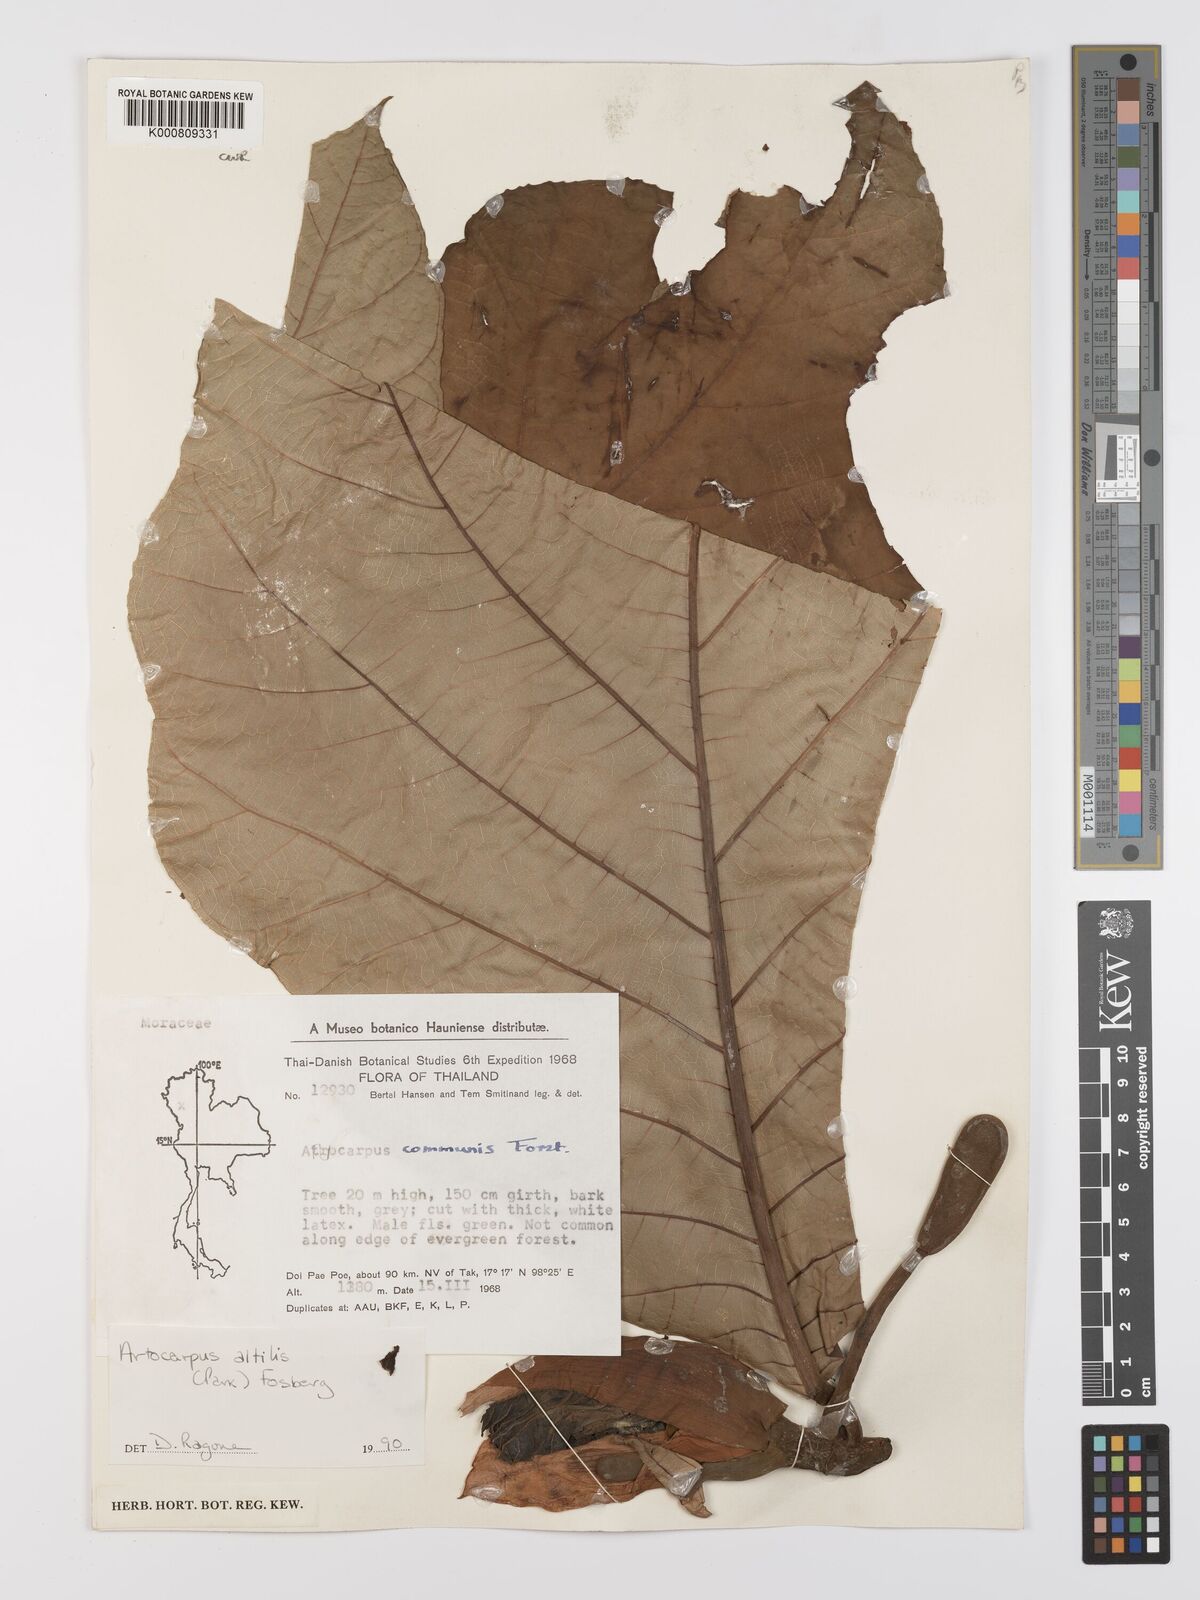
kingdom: Plantae
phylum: Tracheophyta
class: Magnoliopsida
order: Rosales
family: Moraceae
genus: Artocarpus
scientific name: Artocarpus altilis
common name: Breadfruit
